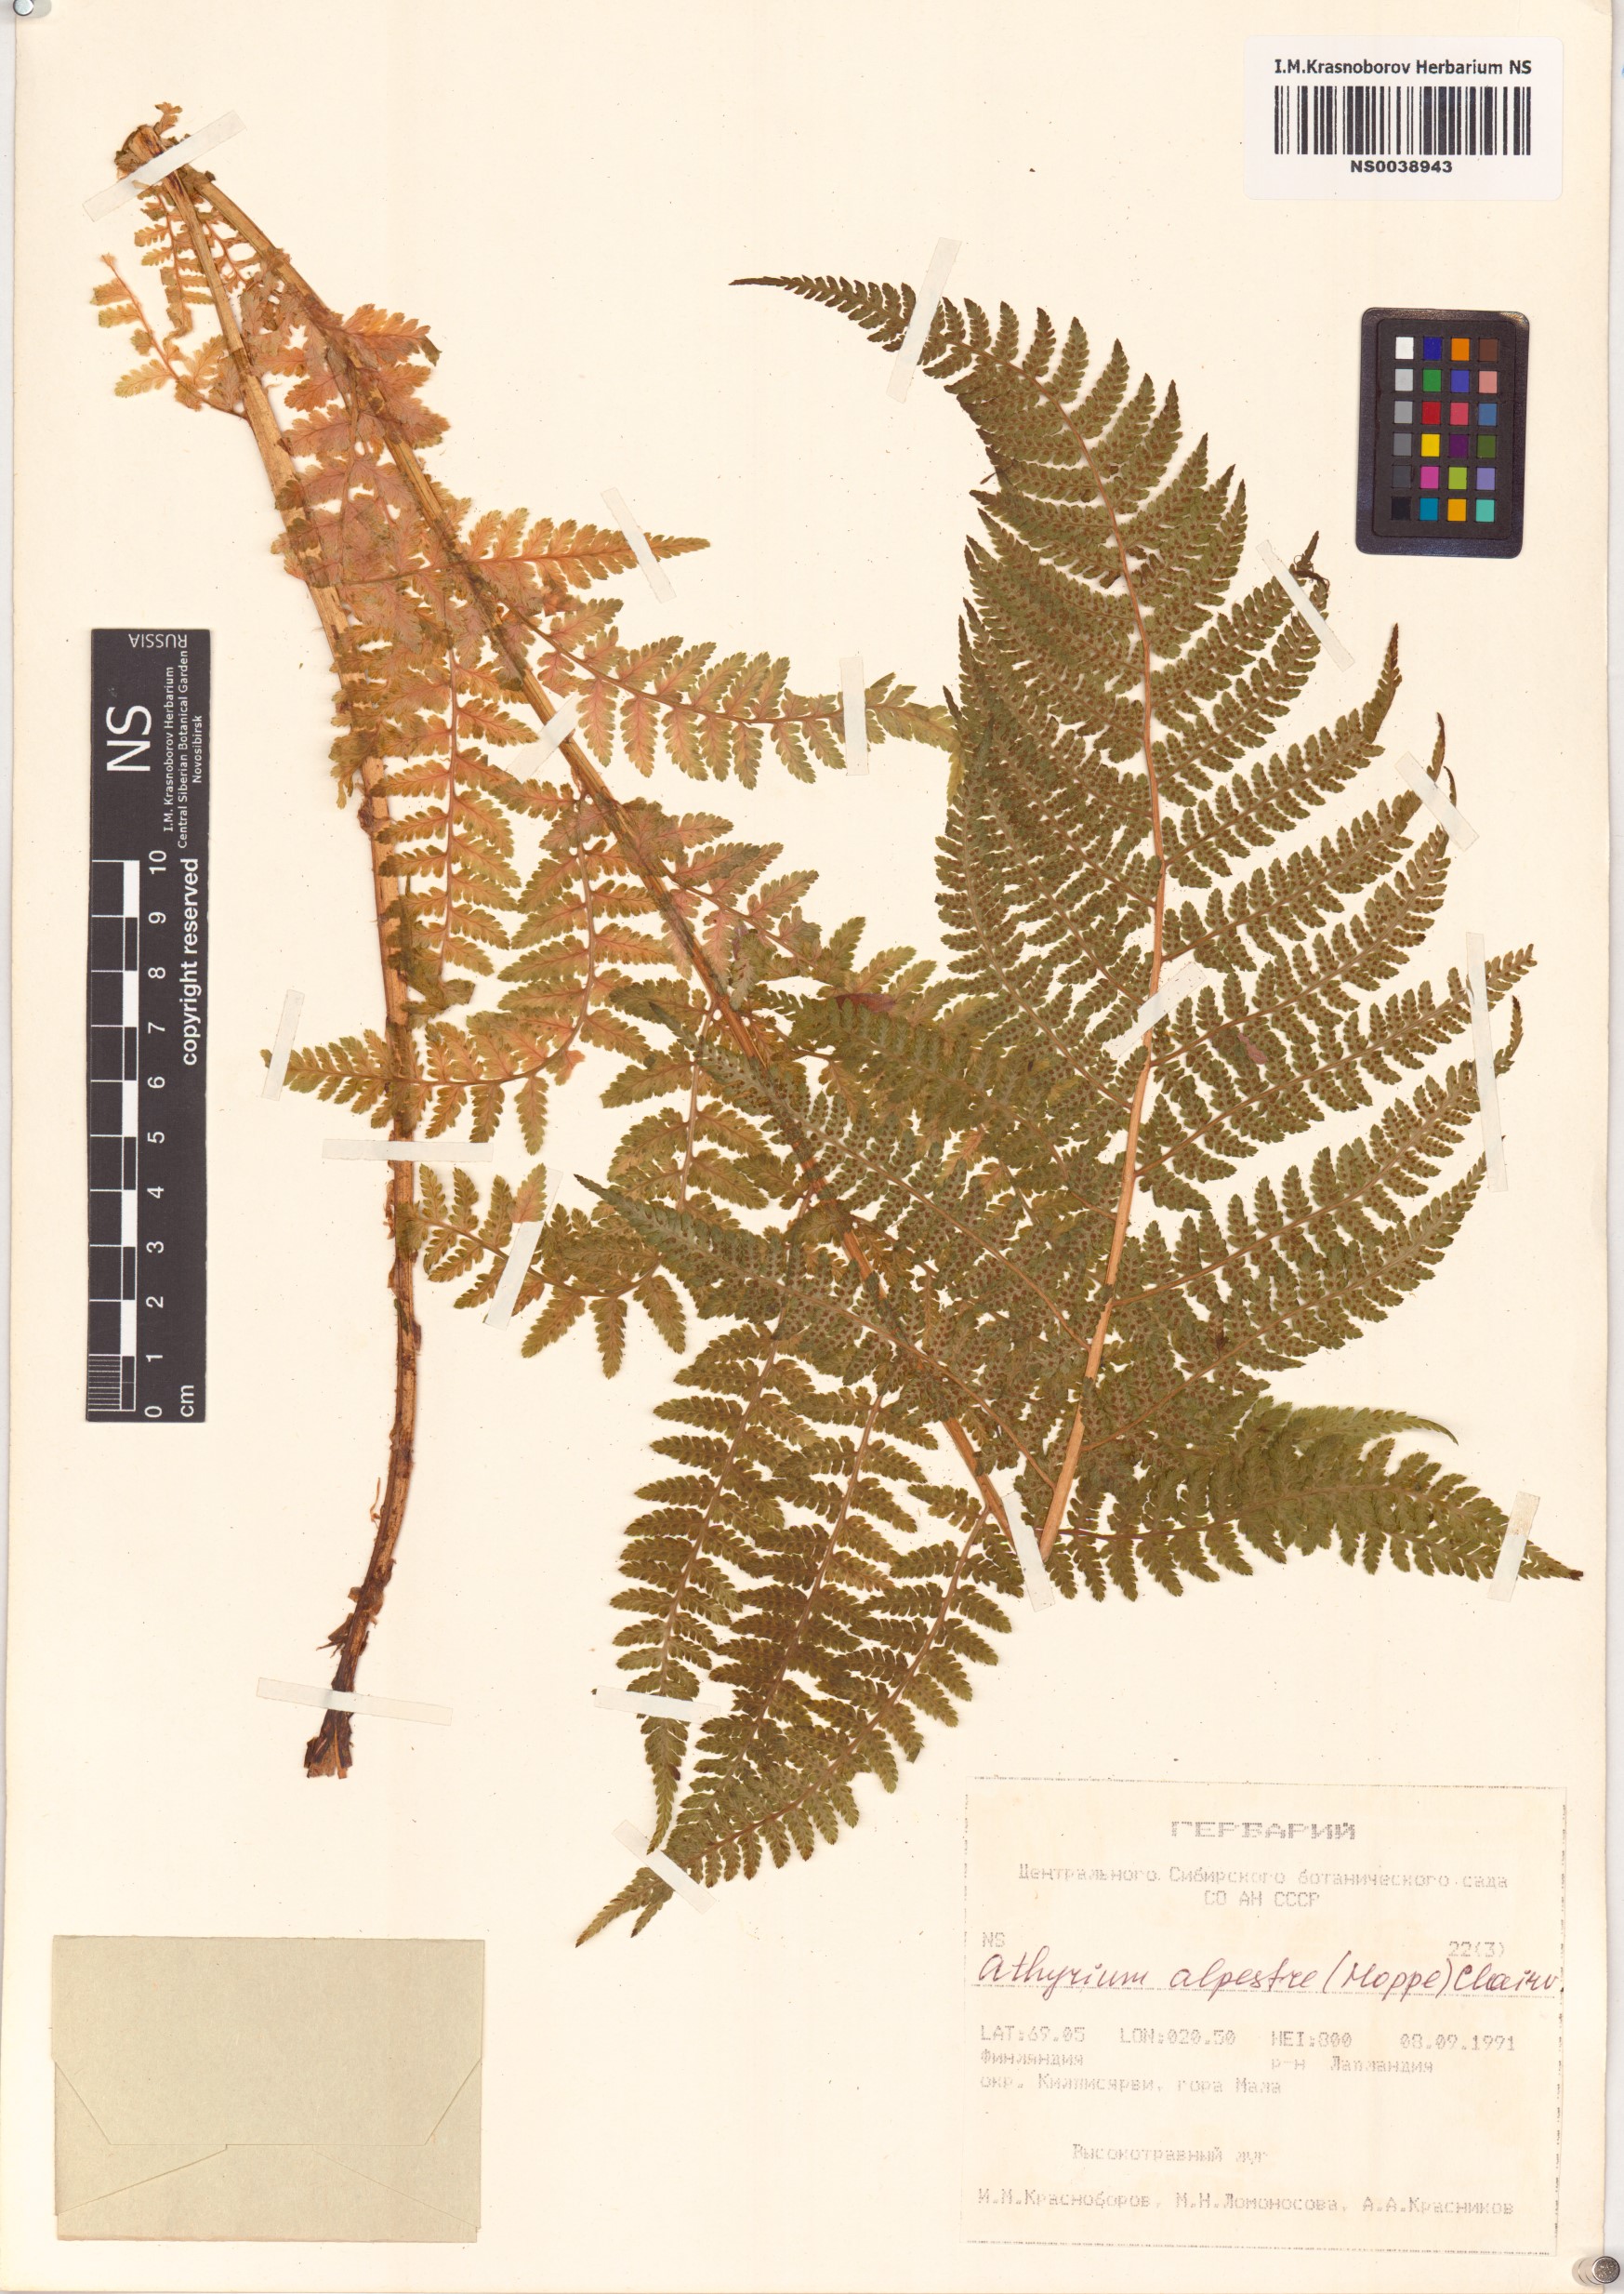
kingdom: Plantae
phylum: Tracheophyta
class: Polypodiopsida
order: Polypodiales
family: Athyriaceae
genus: Pseudathyrium
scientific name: Pseudathyrium alpestre
